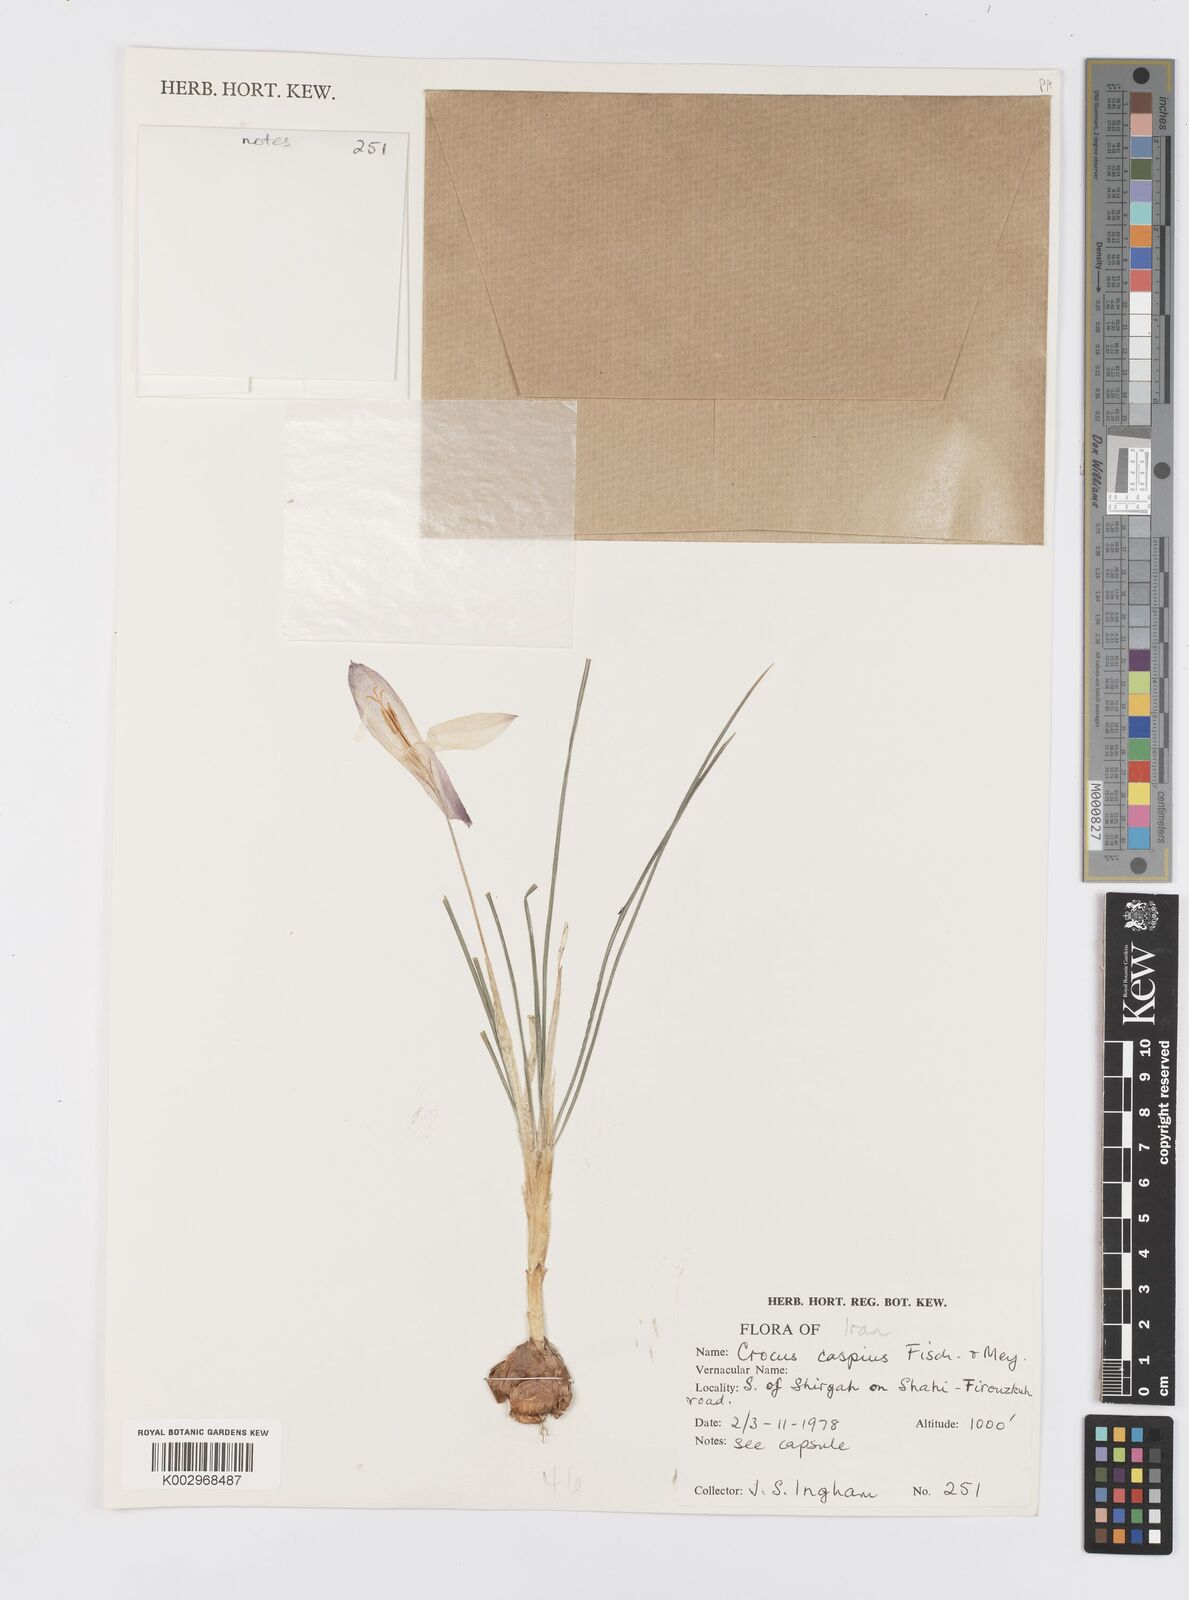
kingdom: Plantae
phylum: Tracheophyta
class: Liliopsida
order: Asparagales
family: Iridaceae
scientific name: Iridaceae
